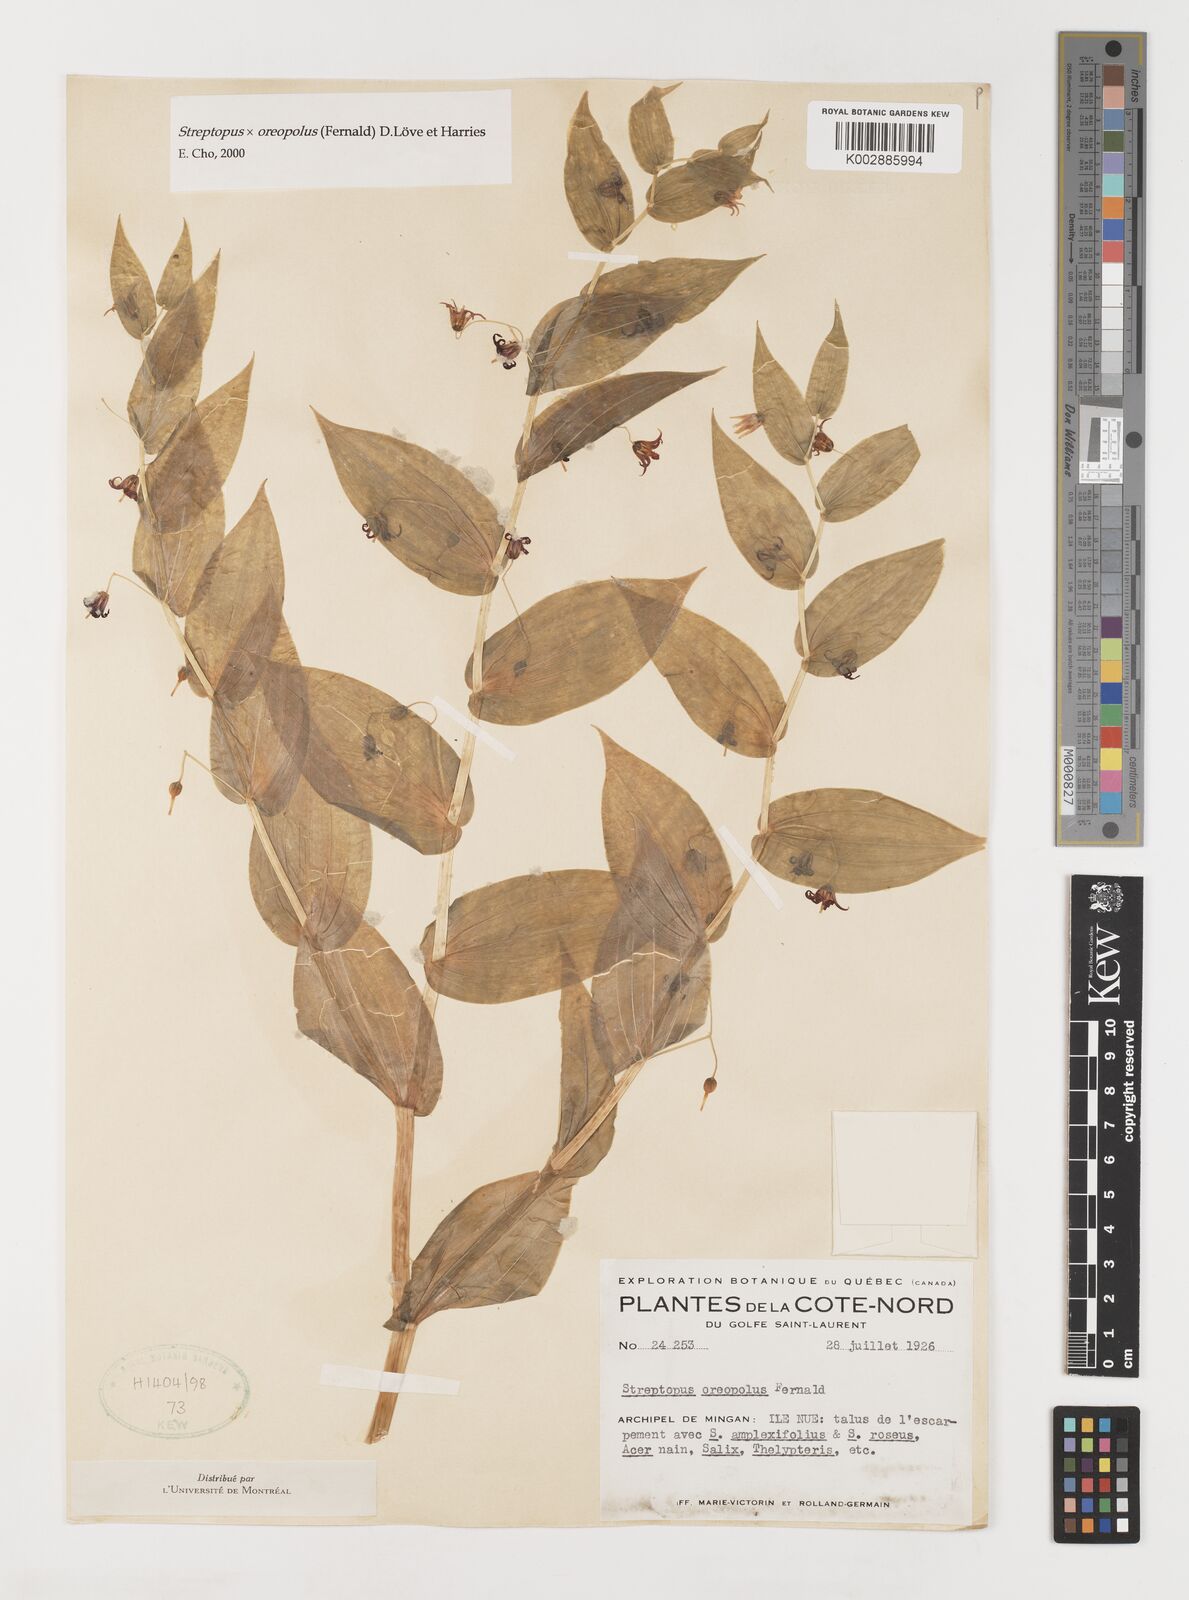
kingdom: Plantae
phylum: Tracheophyta
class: Liliopsida
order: Liliales
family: Liliaceae
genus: Streptopus
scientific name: Streptopus oreopolus
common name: Hybrid twisted-stalk
